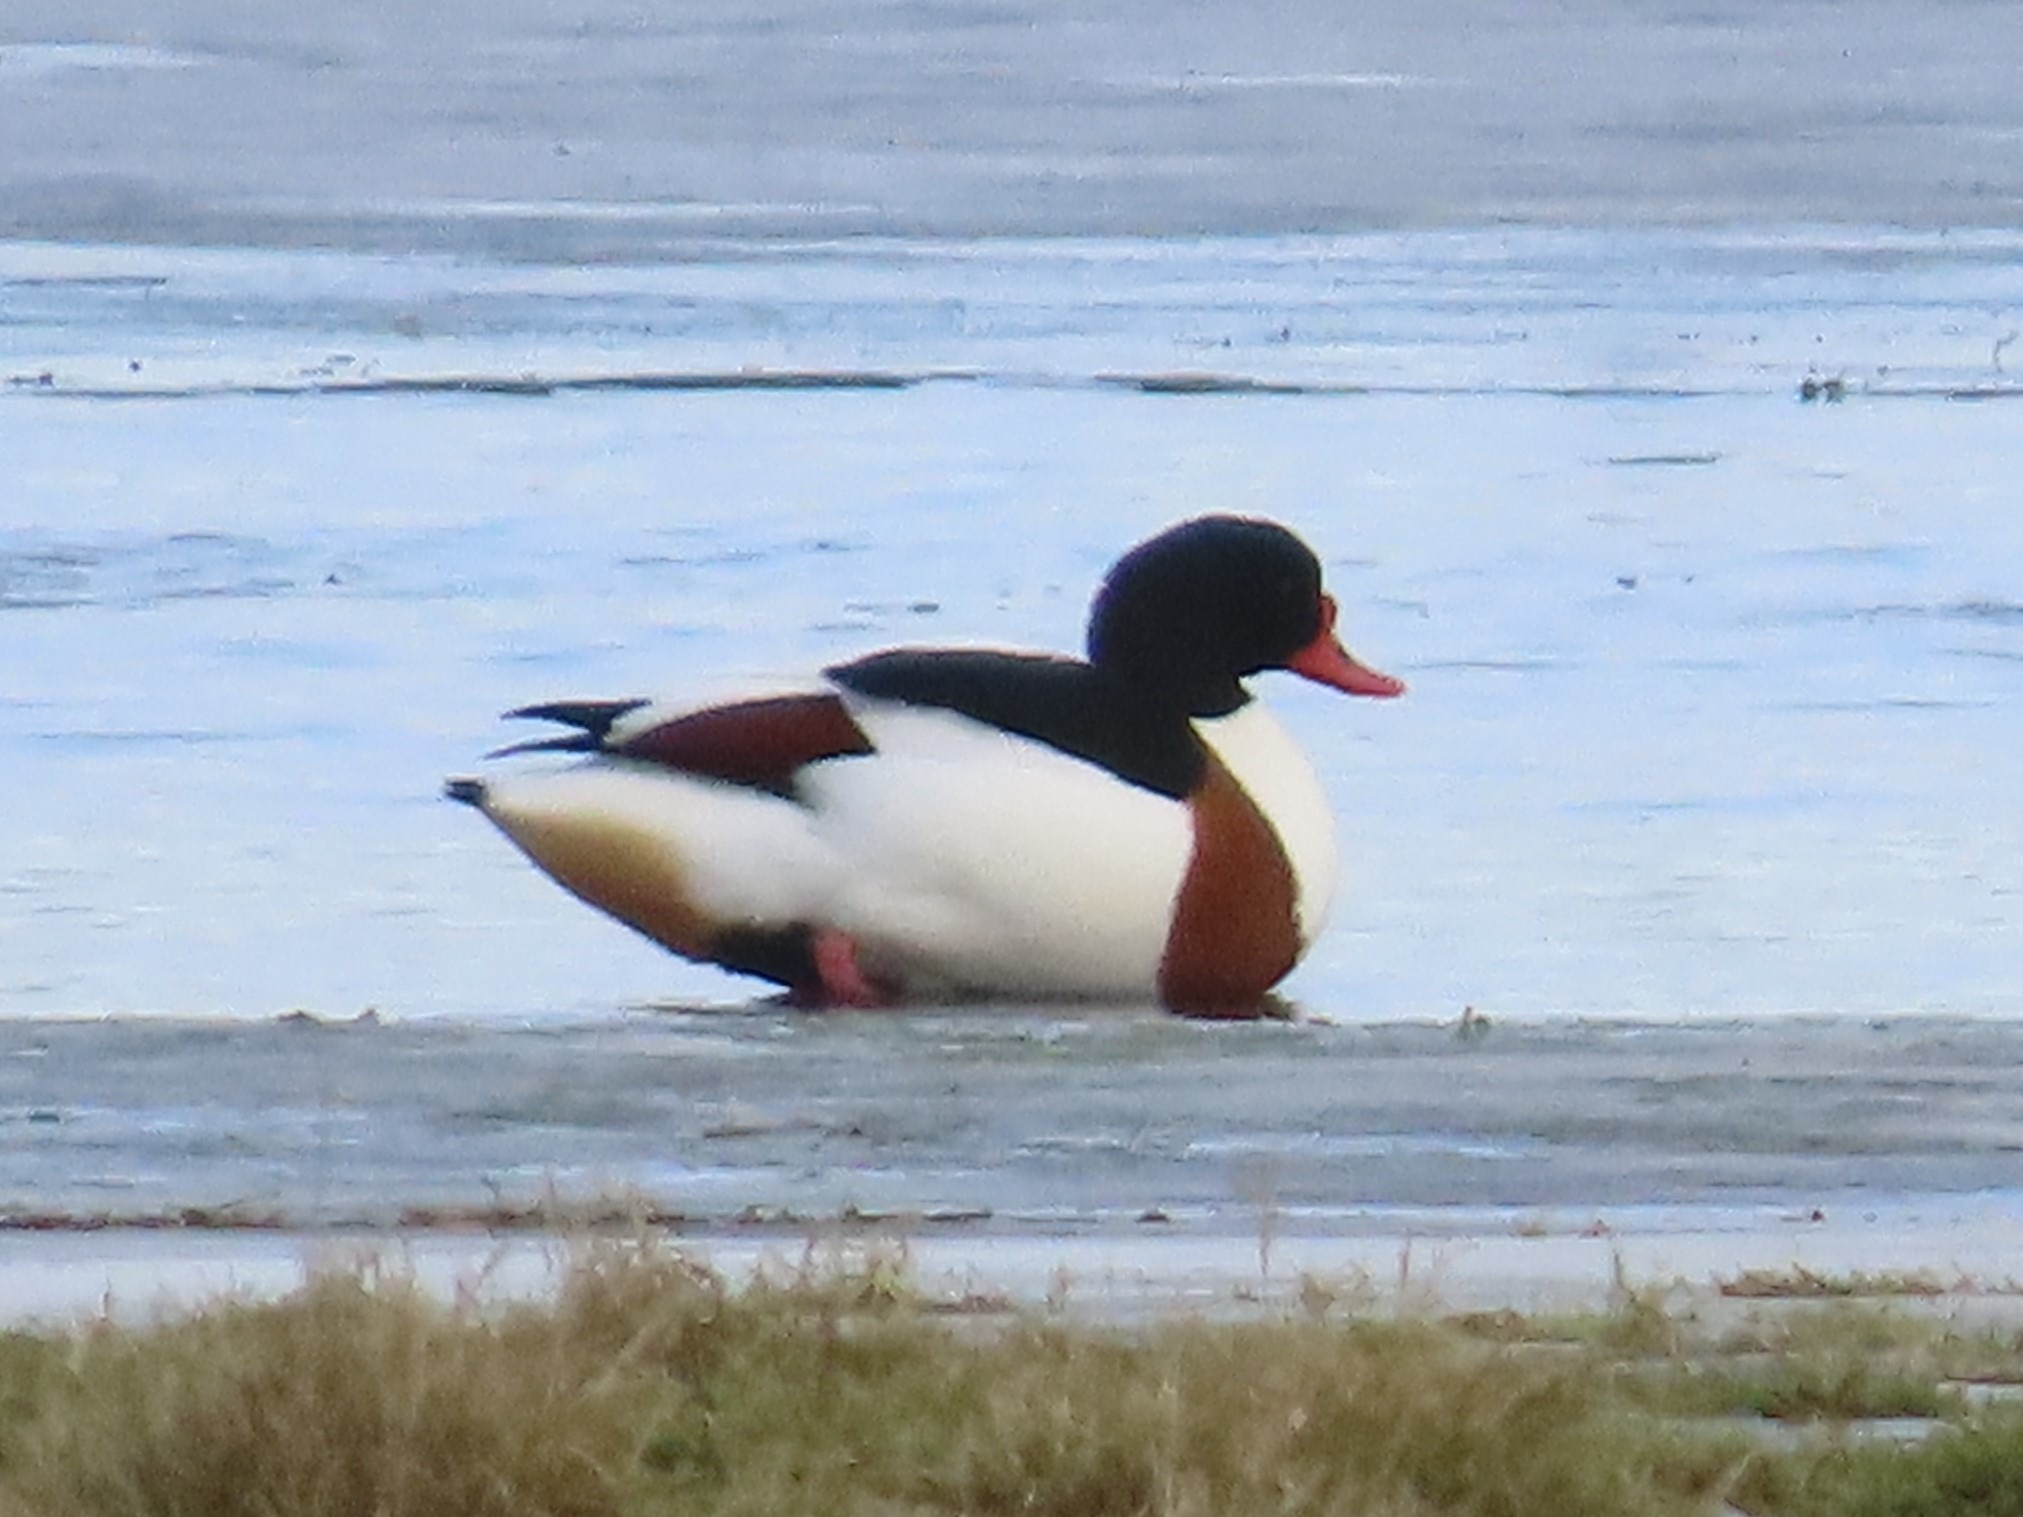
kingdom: Animalia
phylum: Chordata
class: Aves
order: Anseriformes
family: Anatidae
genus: Tadorna
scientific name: Tadorna tadorna
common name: Gravand
